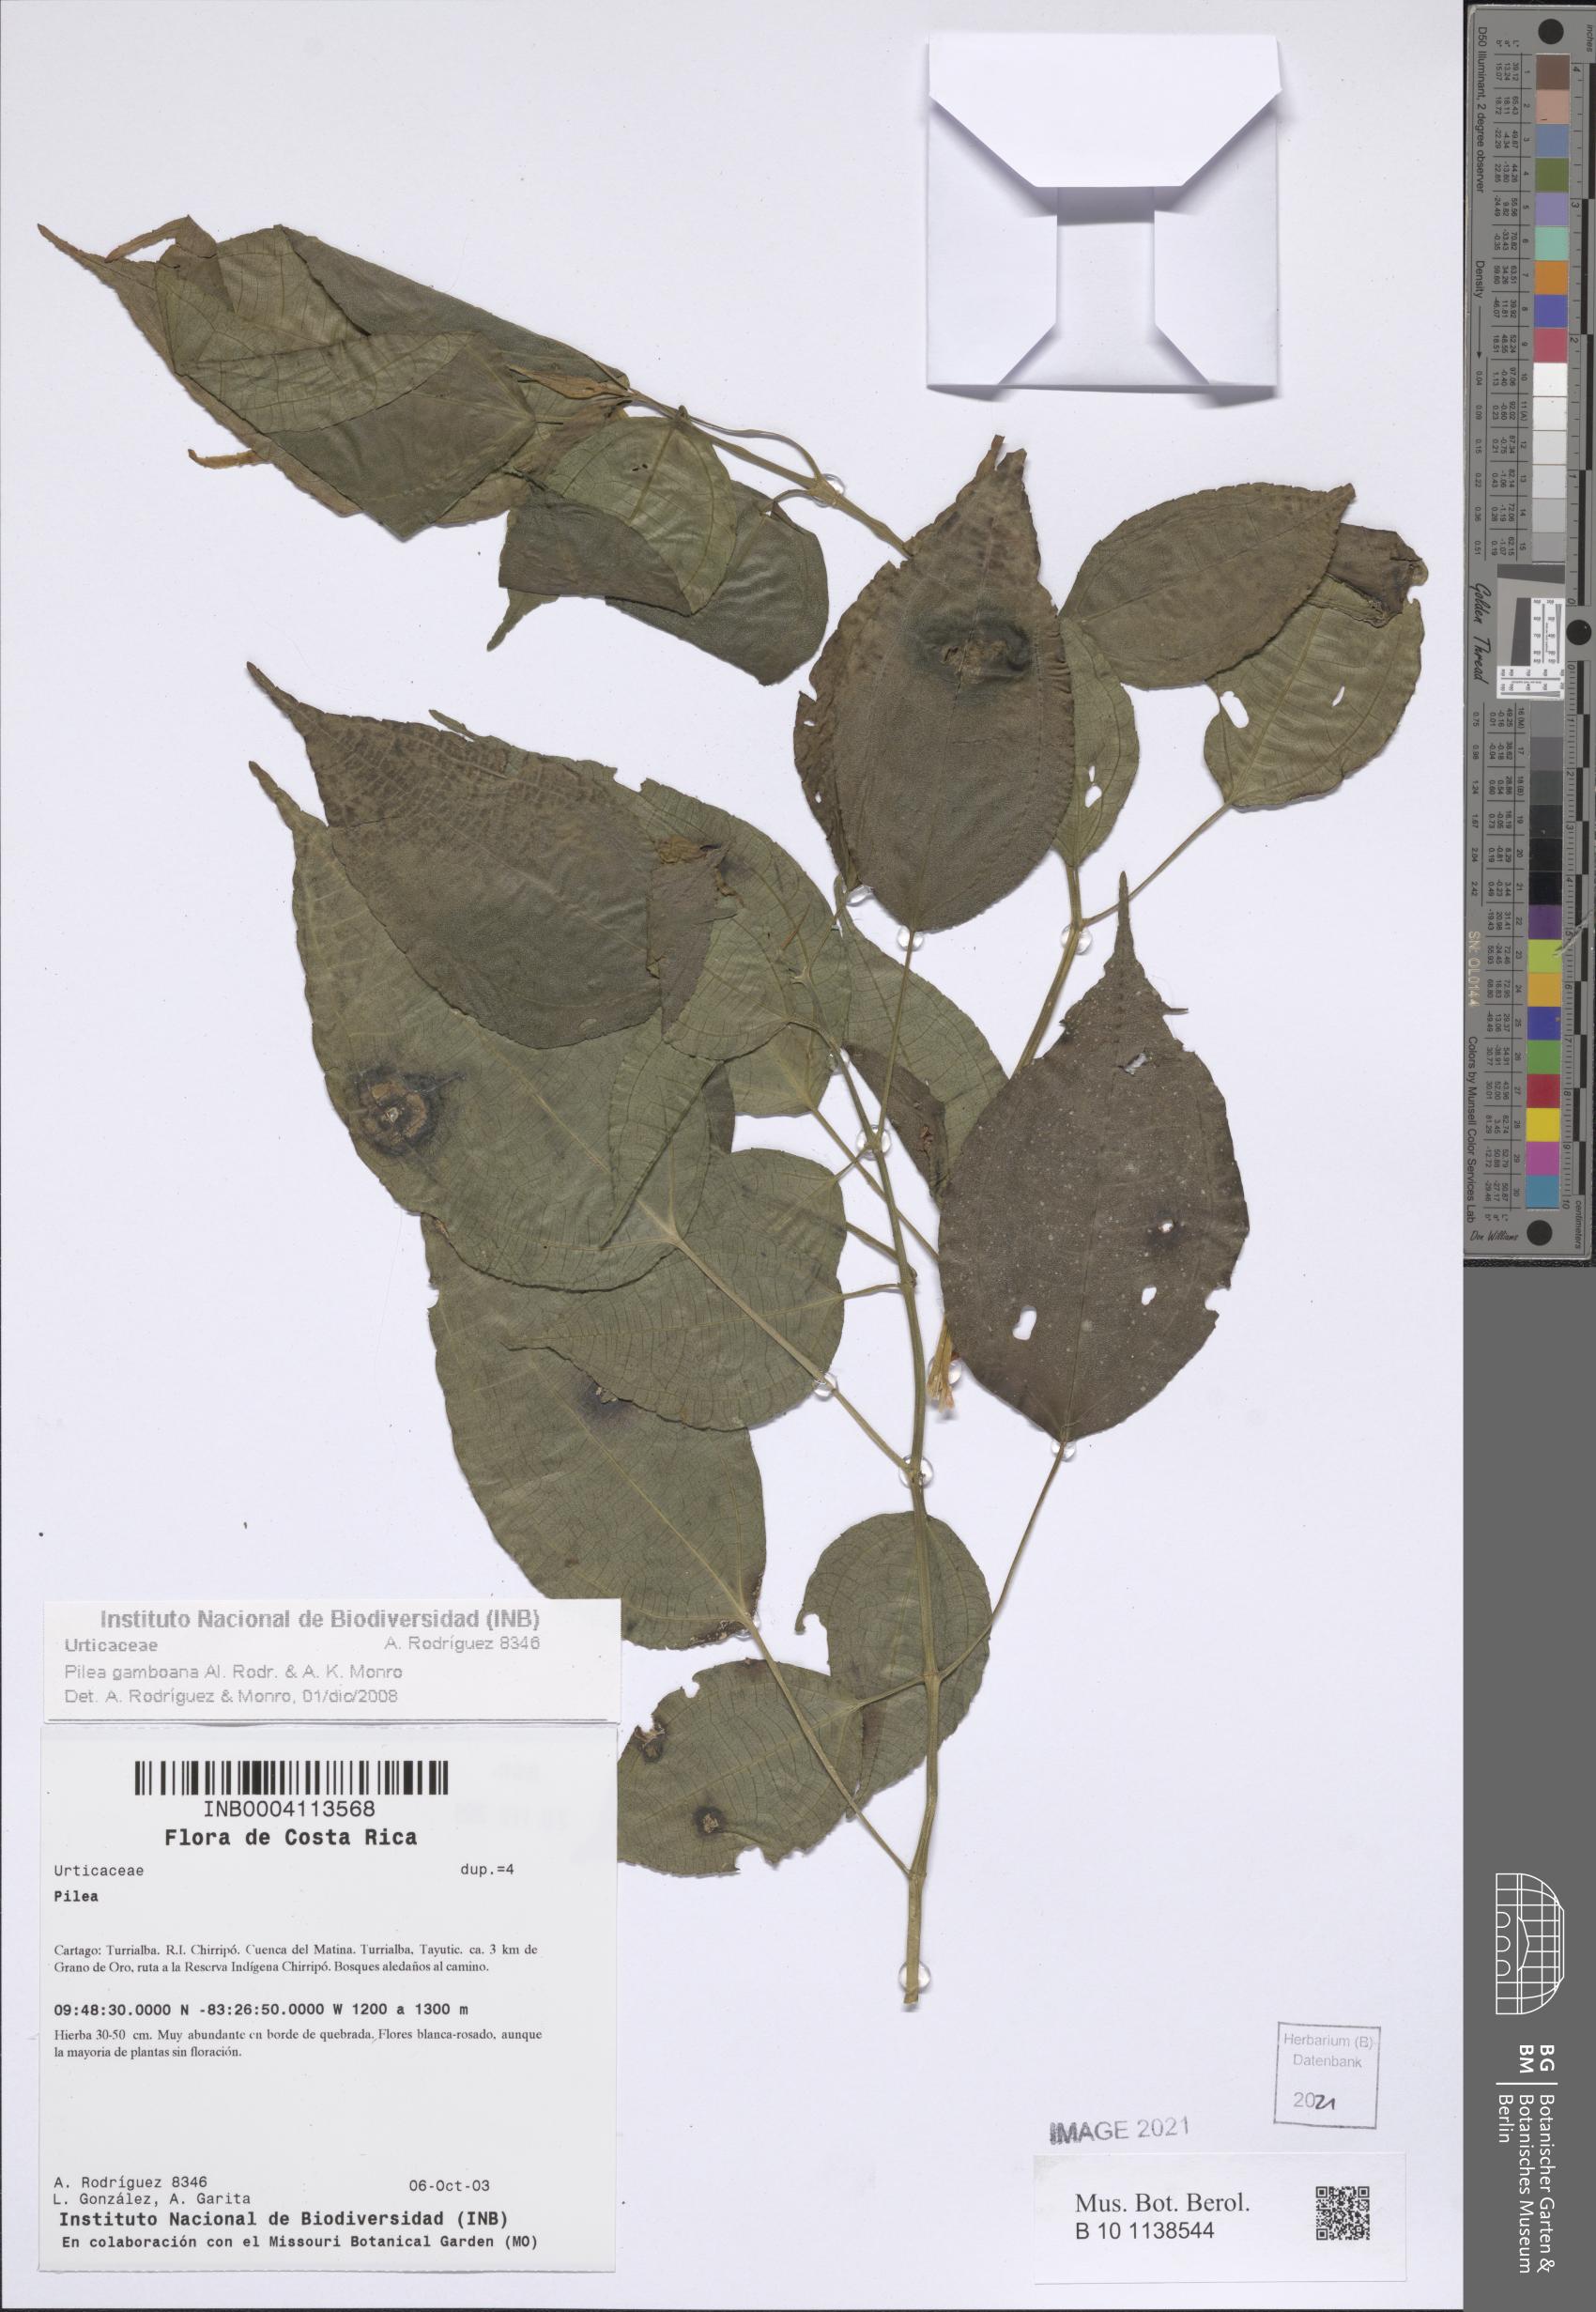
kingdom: Plantae
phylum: Tracheophyta
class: Magnoliopsida
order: Rosales
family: Urticaceae
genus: Pilea
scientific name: Pilea gamboana
